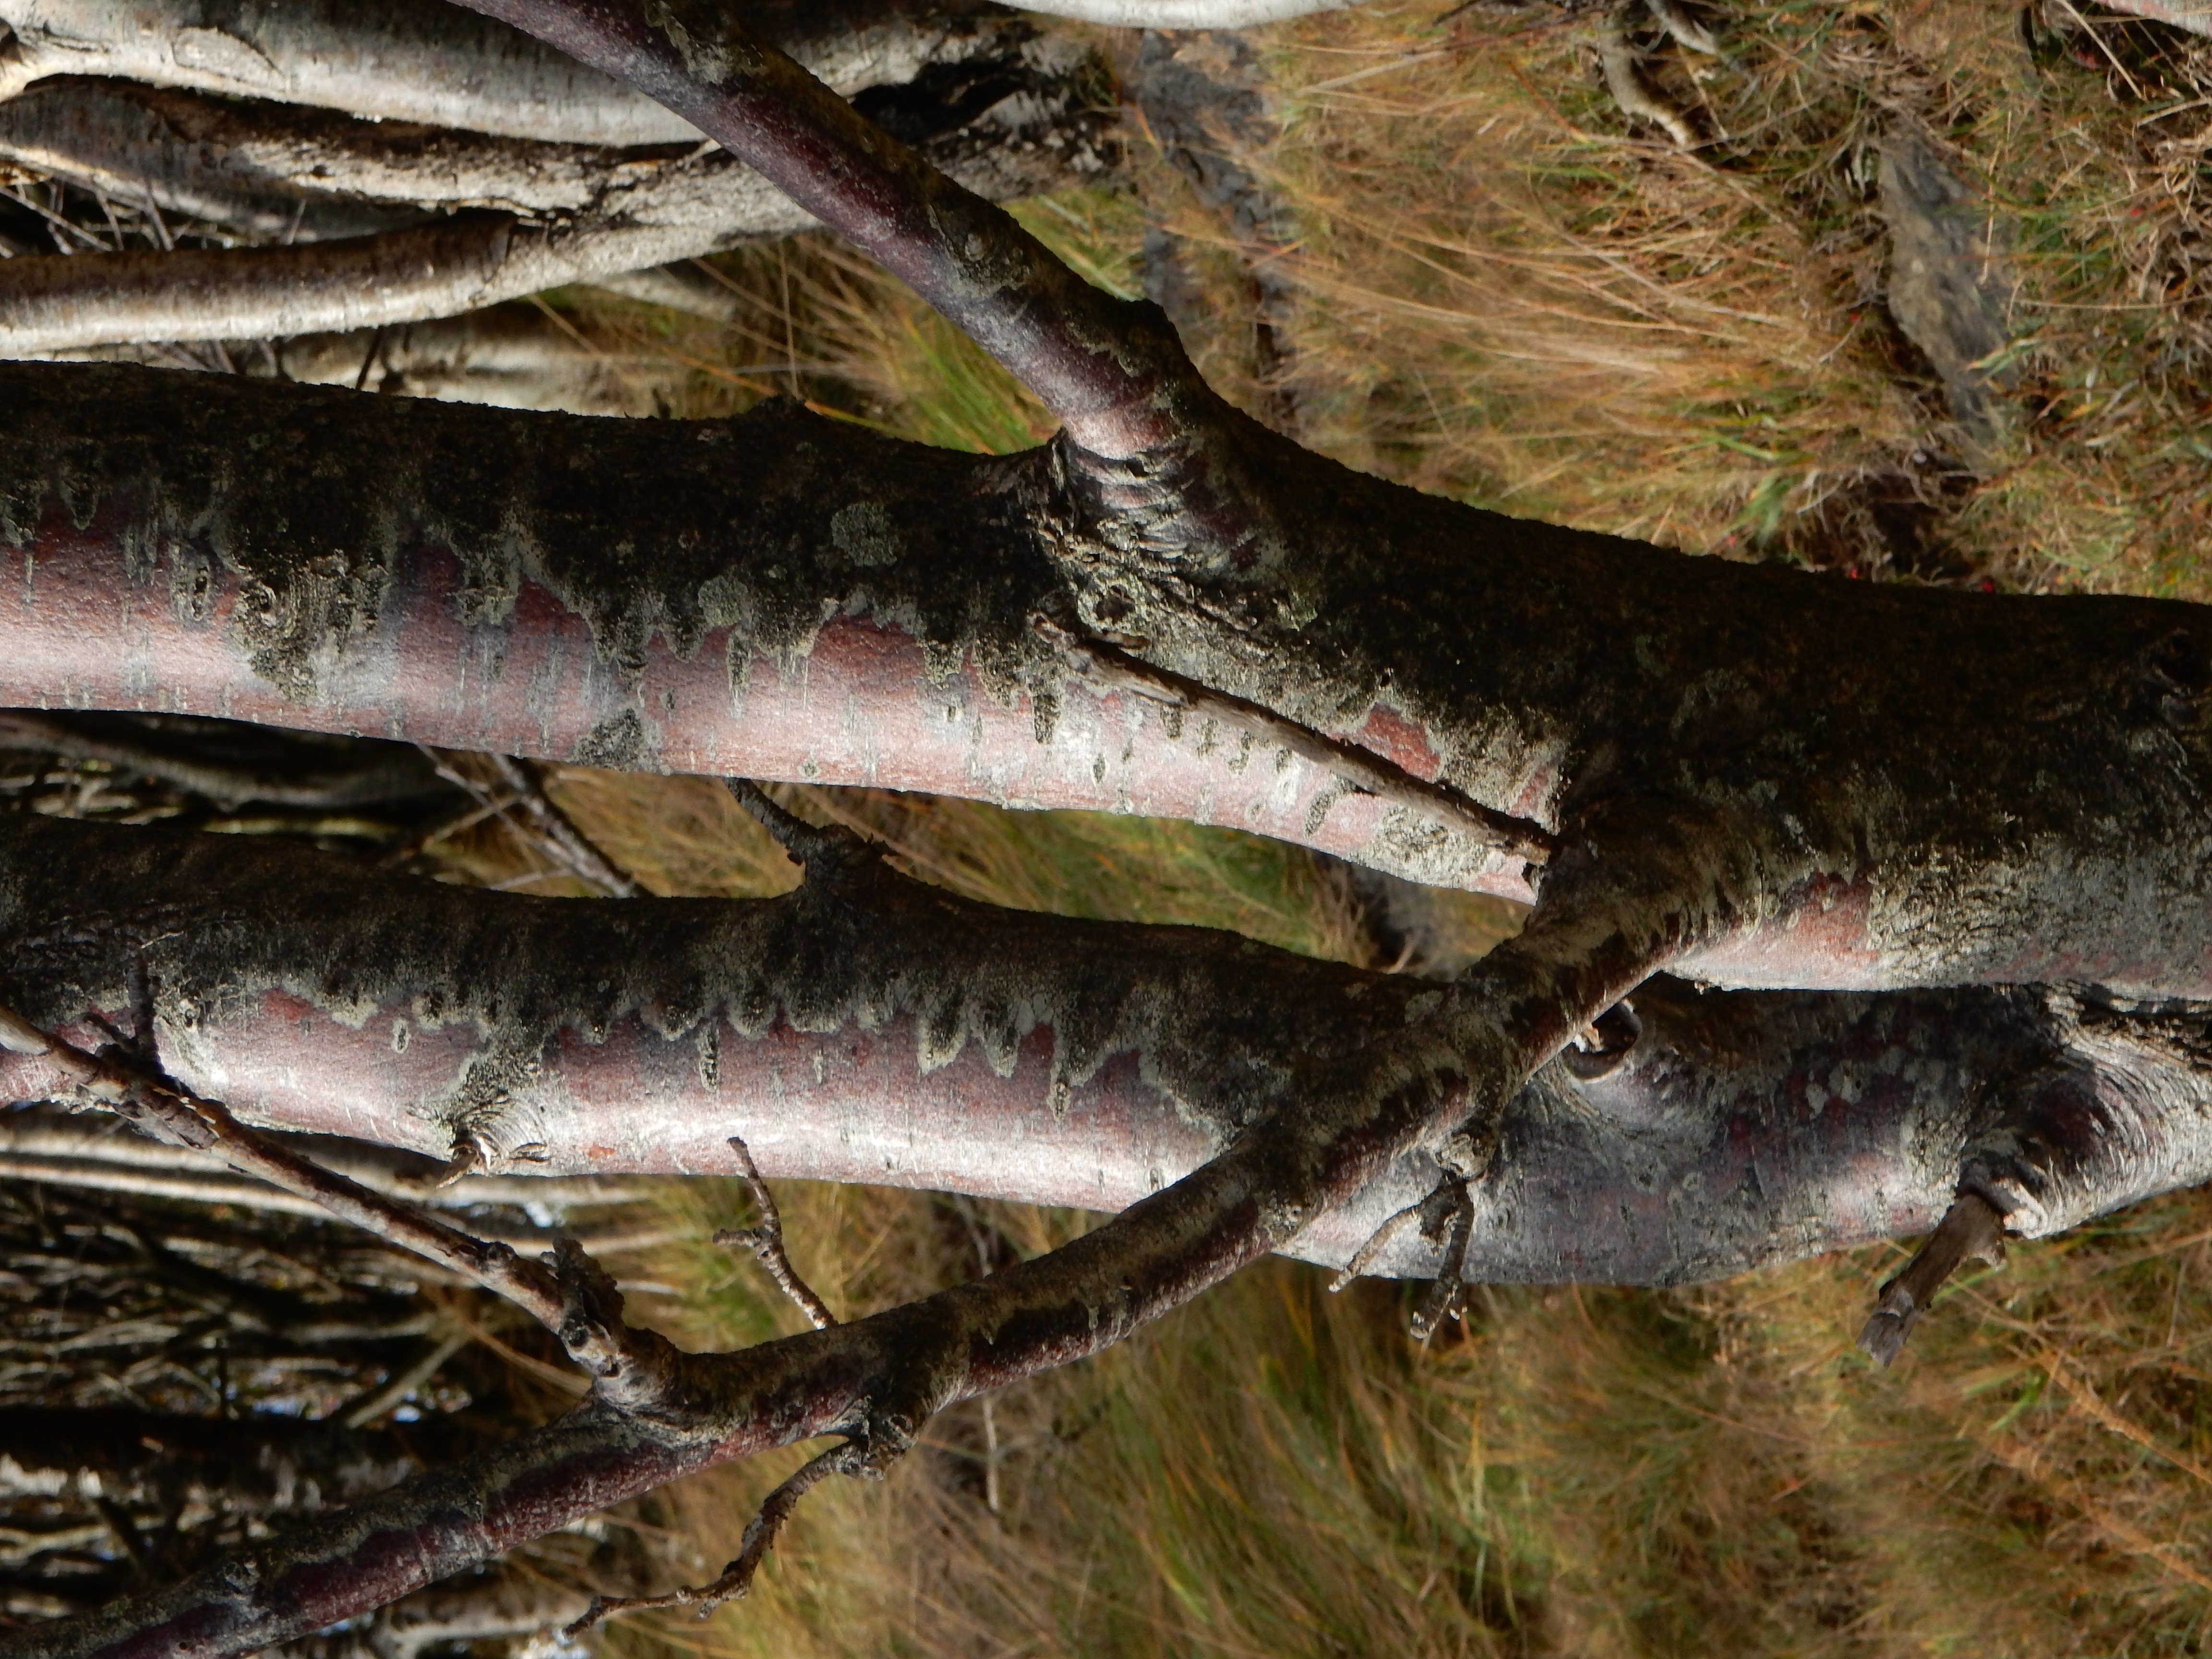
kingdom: Plantae
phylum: Tracheophyta
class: Magnoliopsida
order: Rosales
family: Rosaceae
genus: Hedlundia
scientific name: Hedlundia meinichii
